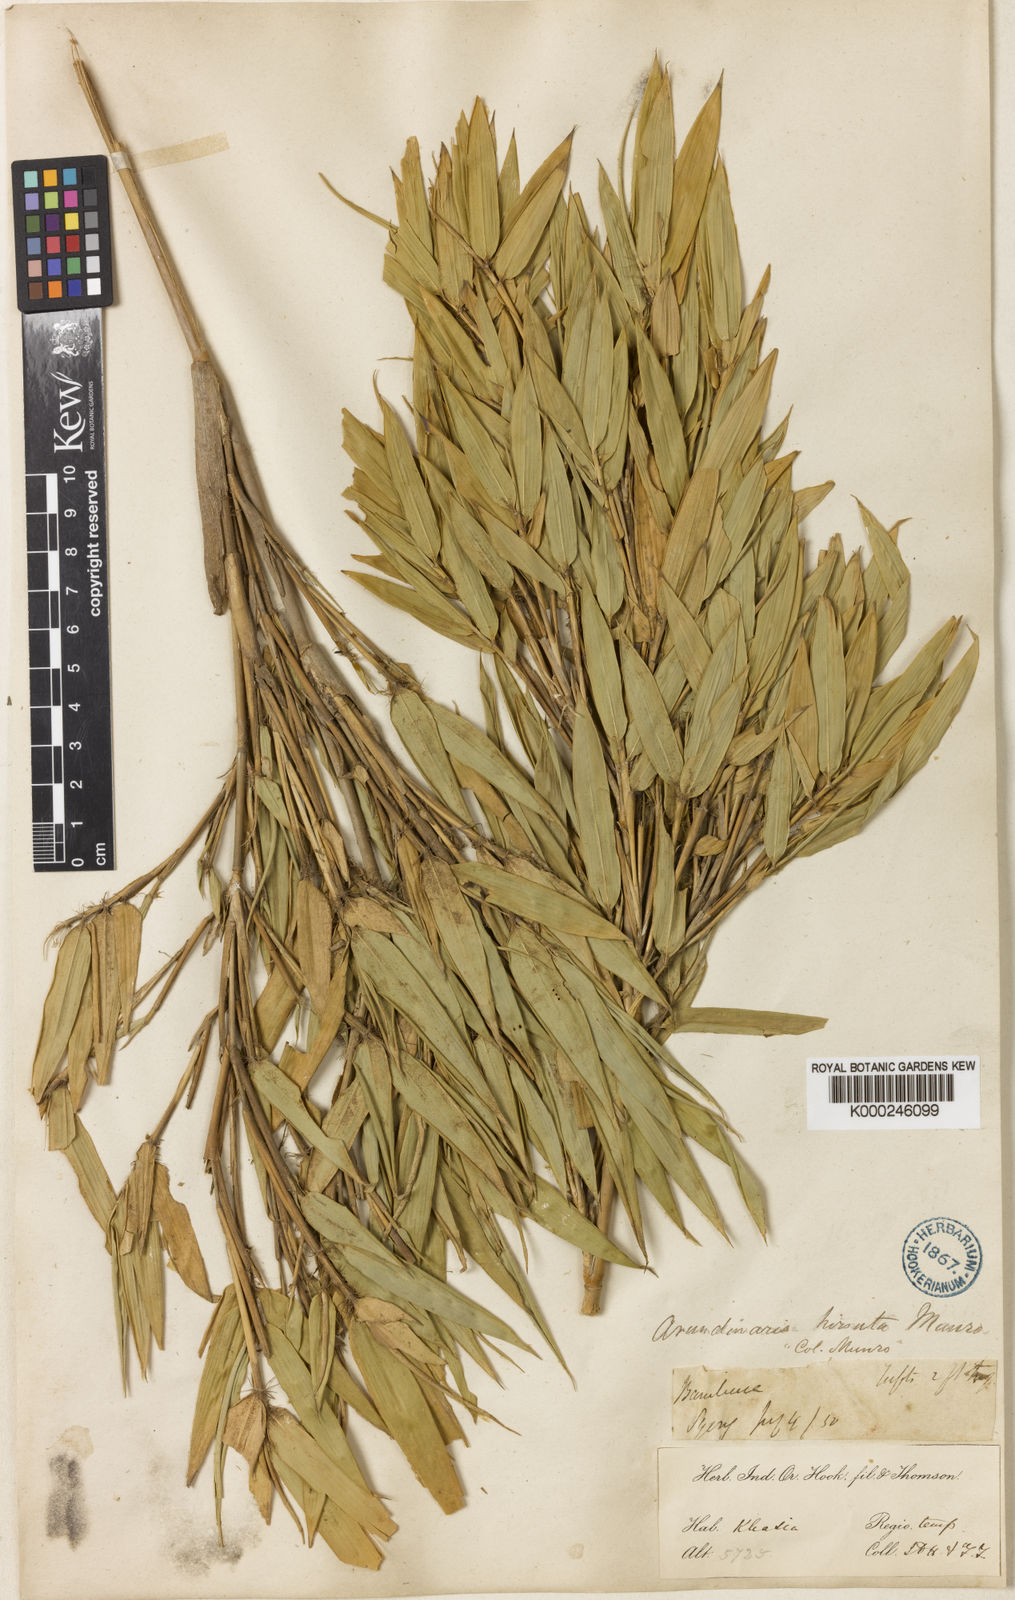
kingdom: Plantae
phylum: Tracheophyta
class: Liliopsida
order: Poales
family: Poaceae
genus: Yushania
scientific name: Yushania hirsuta
